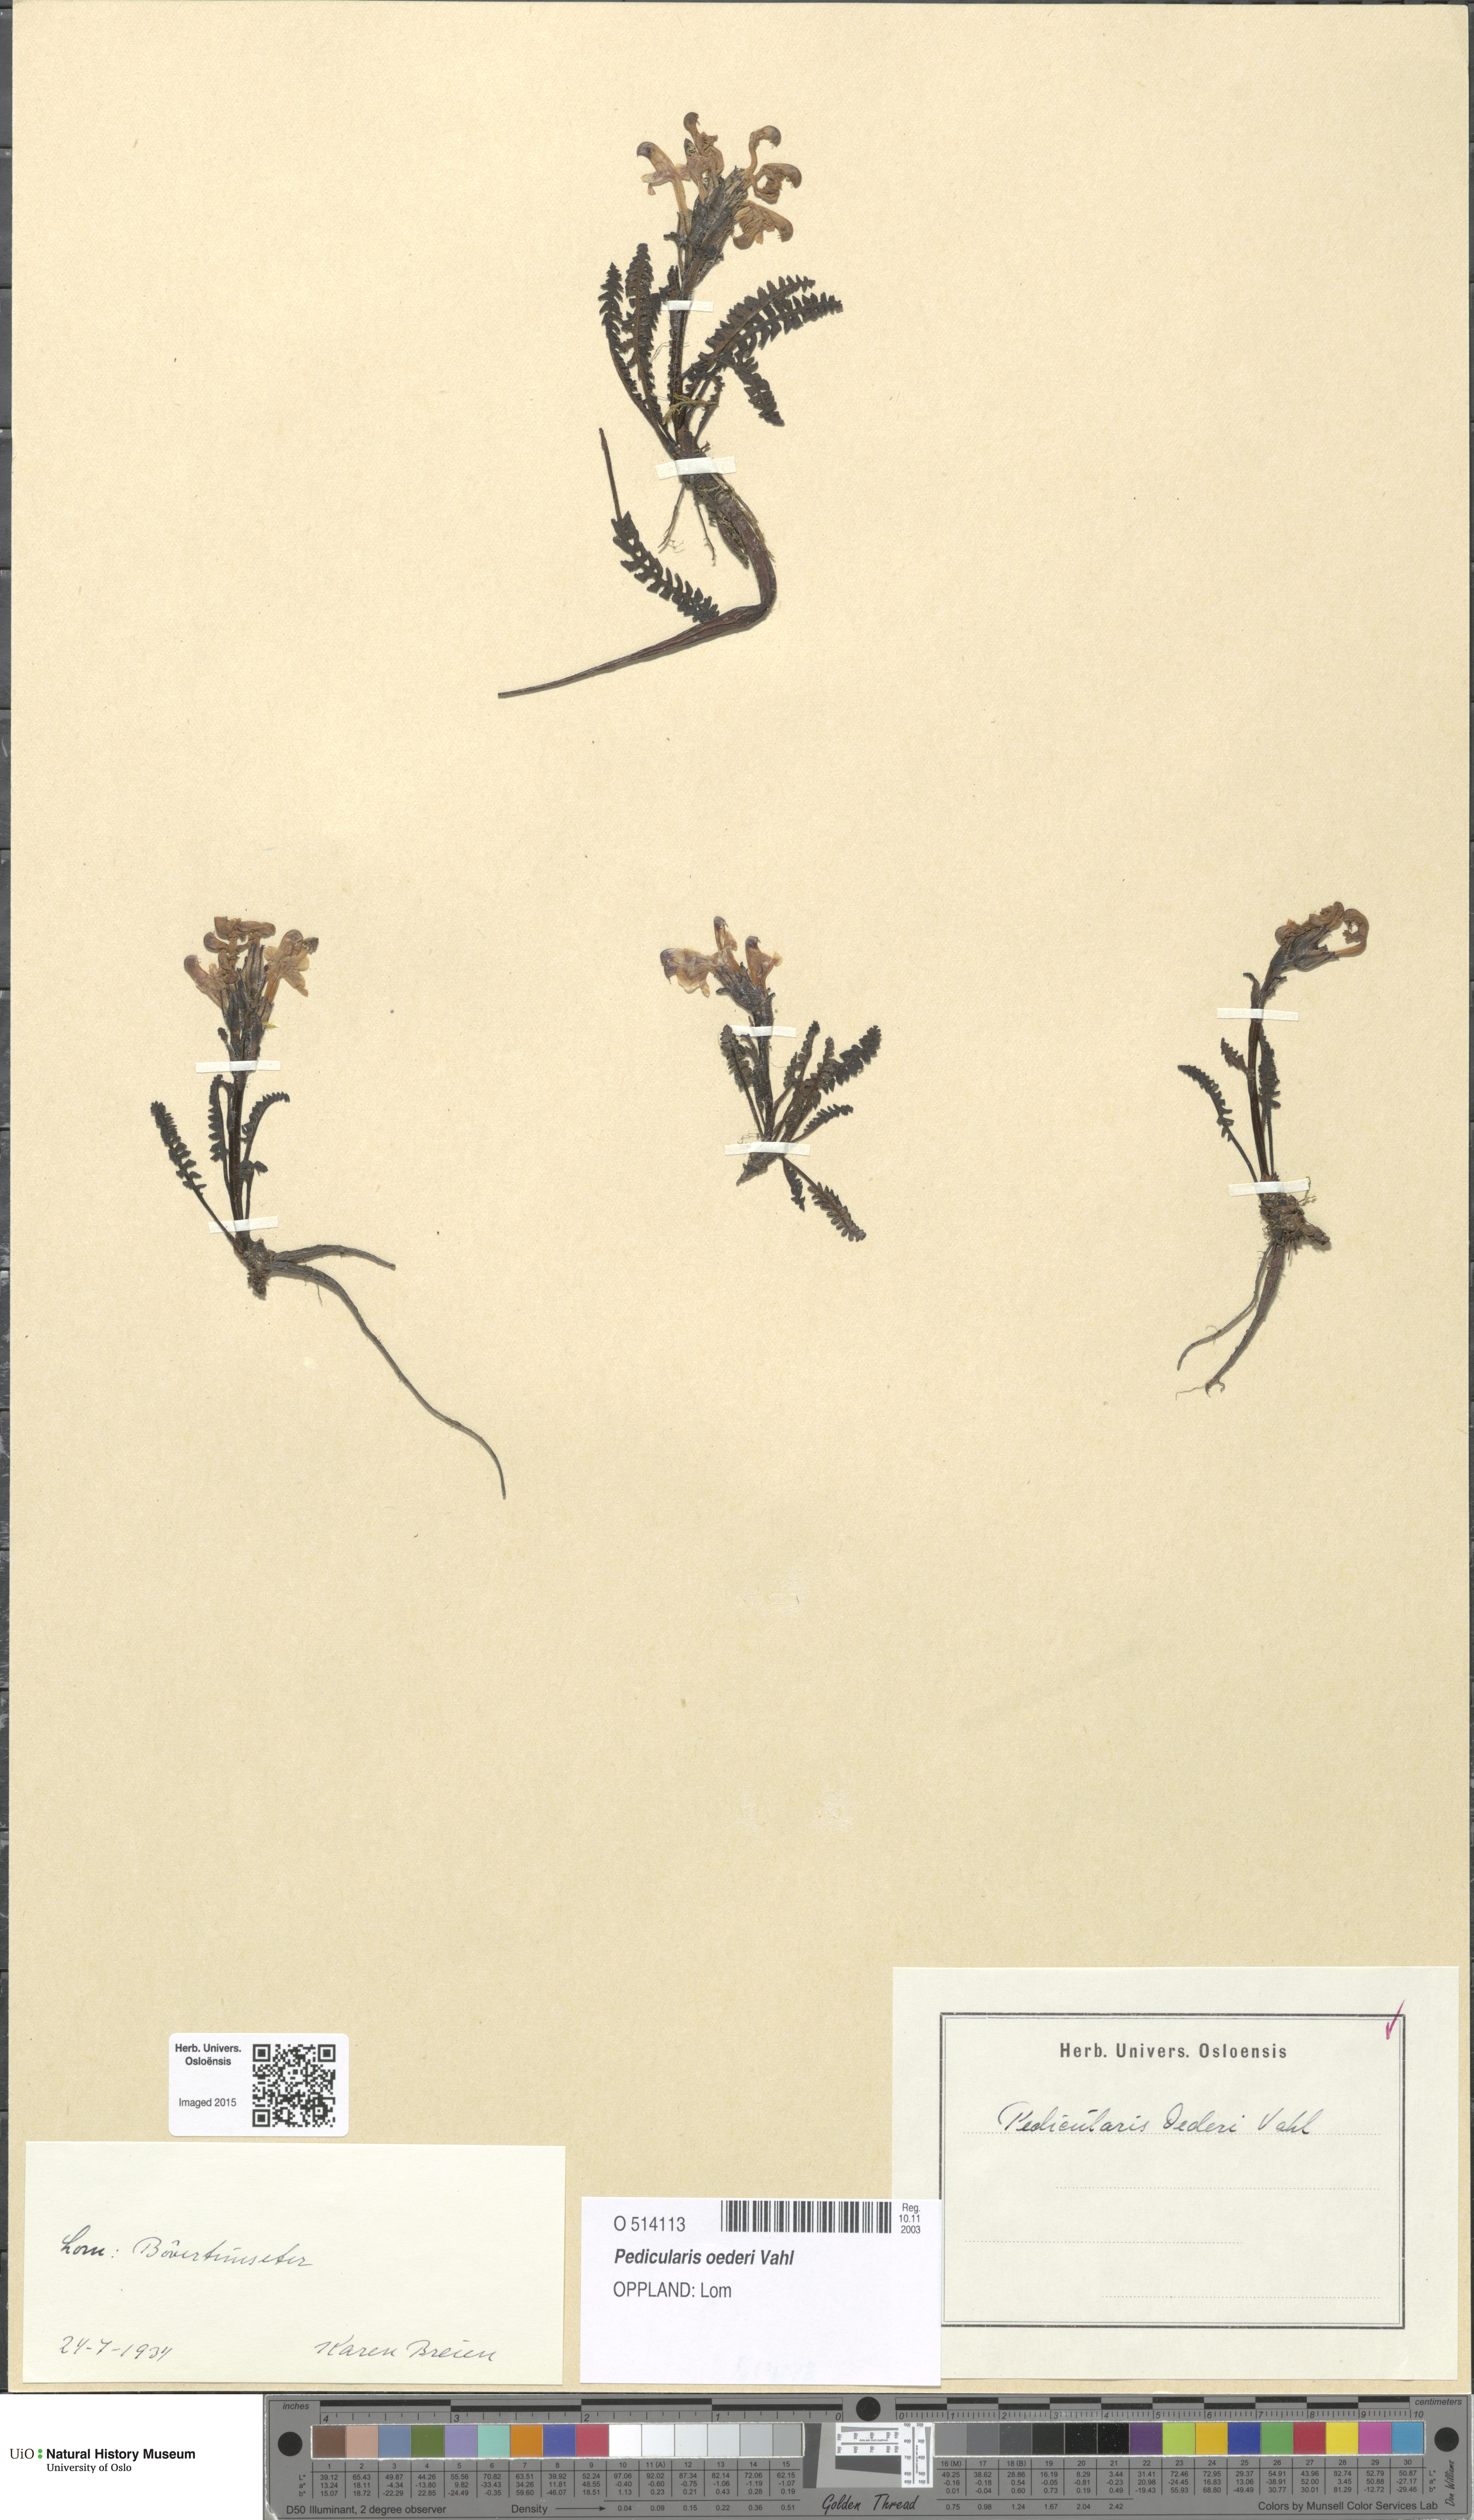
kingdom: Plantae
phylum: Tracheophyta
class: Magnoliopsida
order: Lamiales
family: Orobanchaceae
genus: Pedicularis
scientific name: Pedicularis oederi
